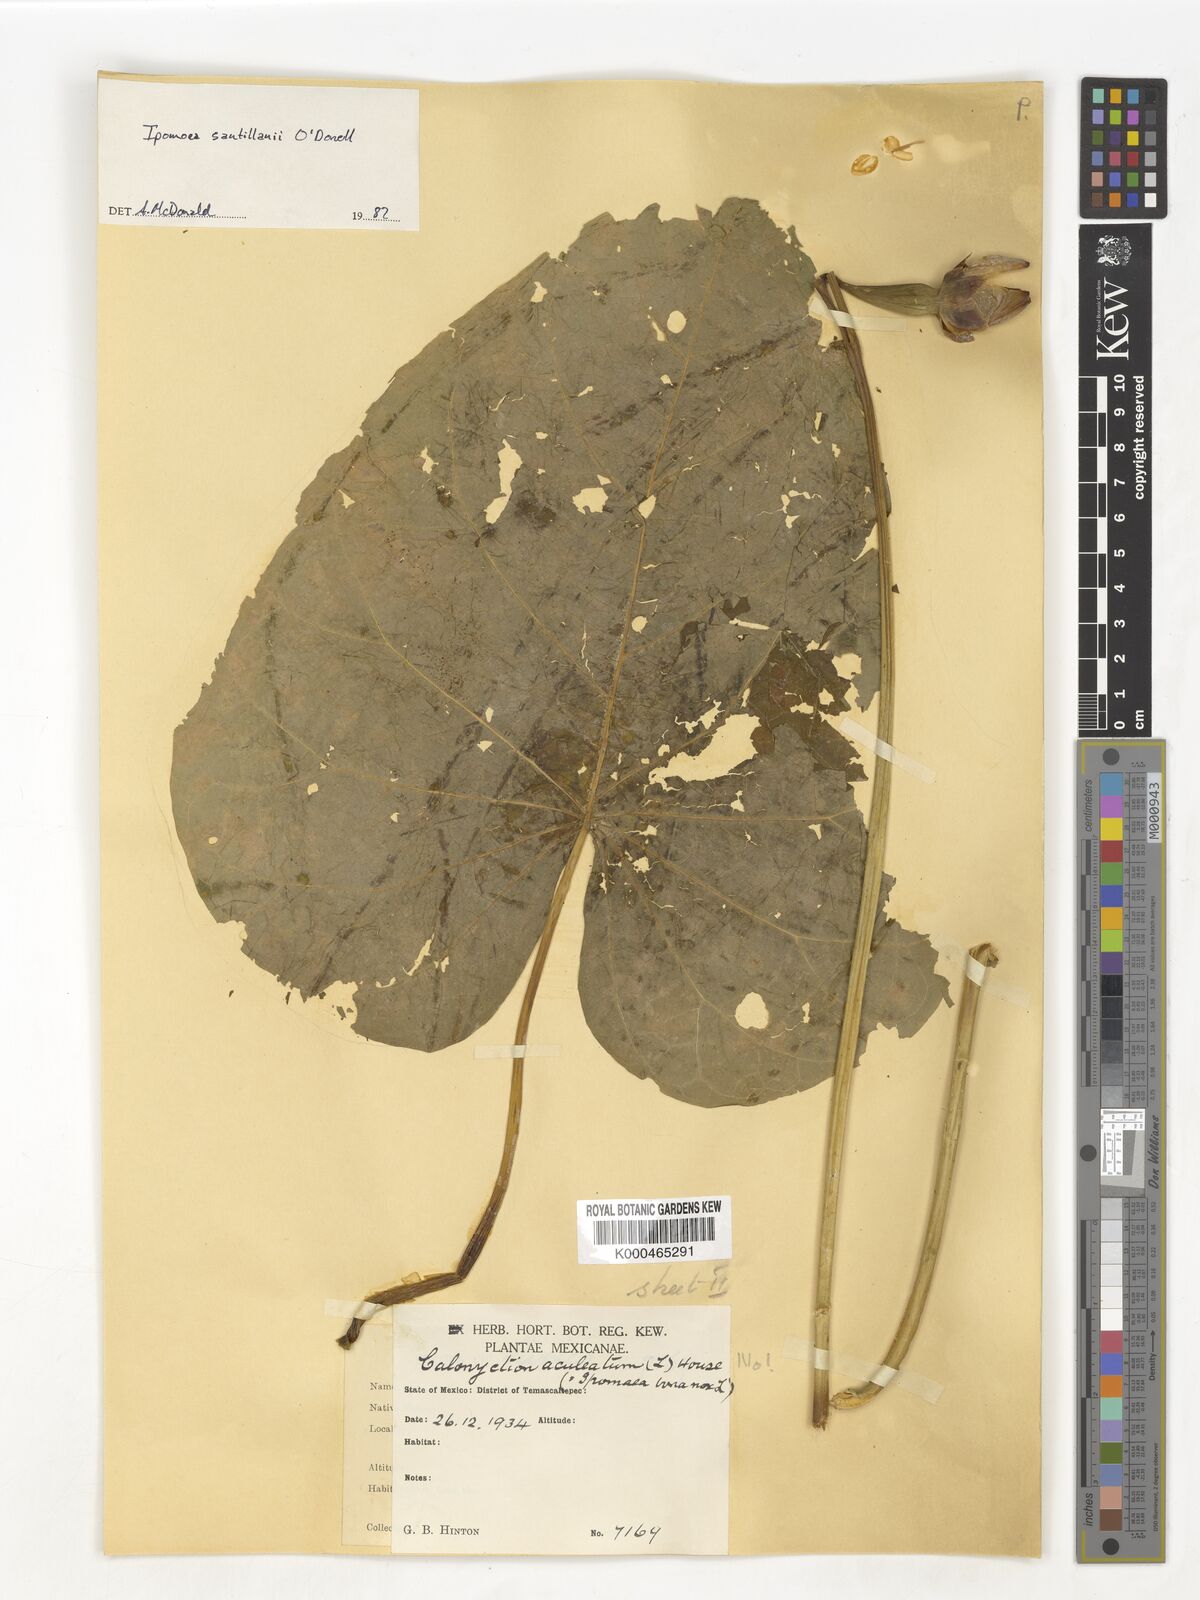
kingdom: Plantae
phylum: Tracheophyta
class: Magnoliopsida
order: Solanales
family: Convolvulaceae
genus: Ipomoea
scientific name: Ipomoea
